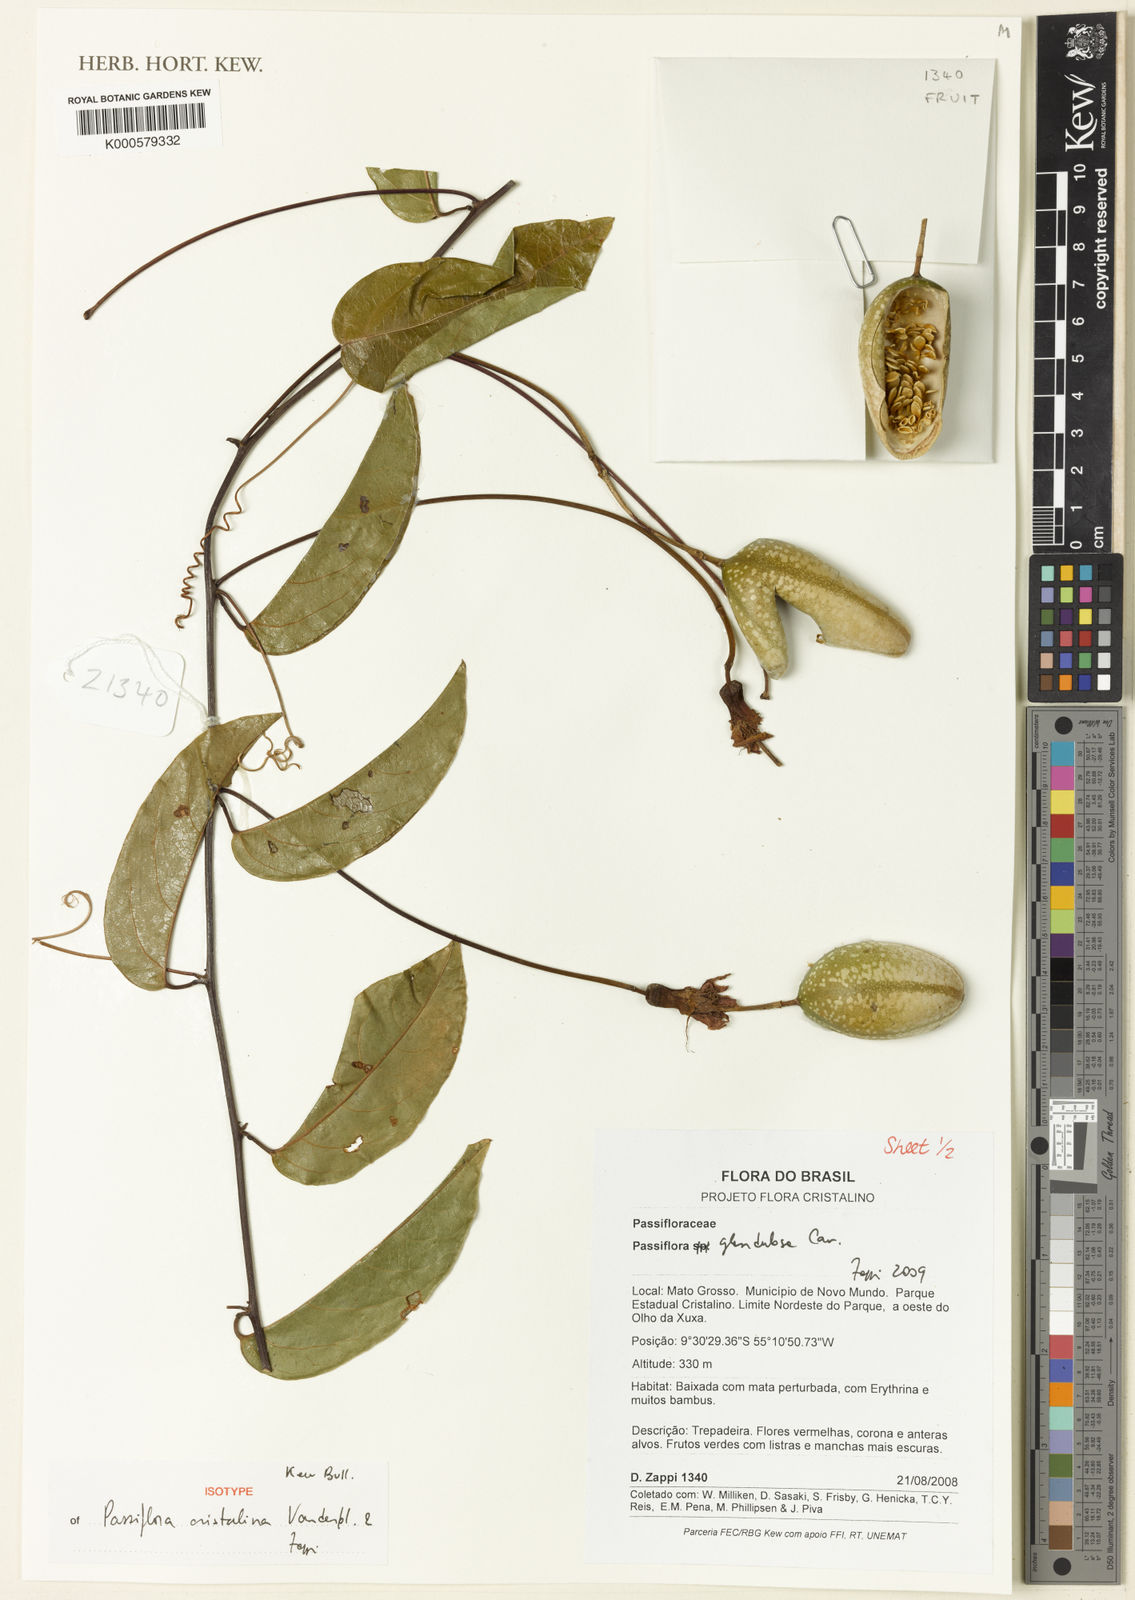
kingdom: Plantae
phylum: Tracheophyta
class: Magnoliopsida
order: Malpighiales
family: Passifloraceae
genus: Passiflora
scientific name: Passiflora cristalina
